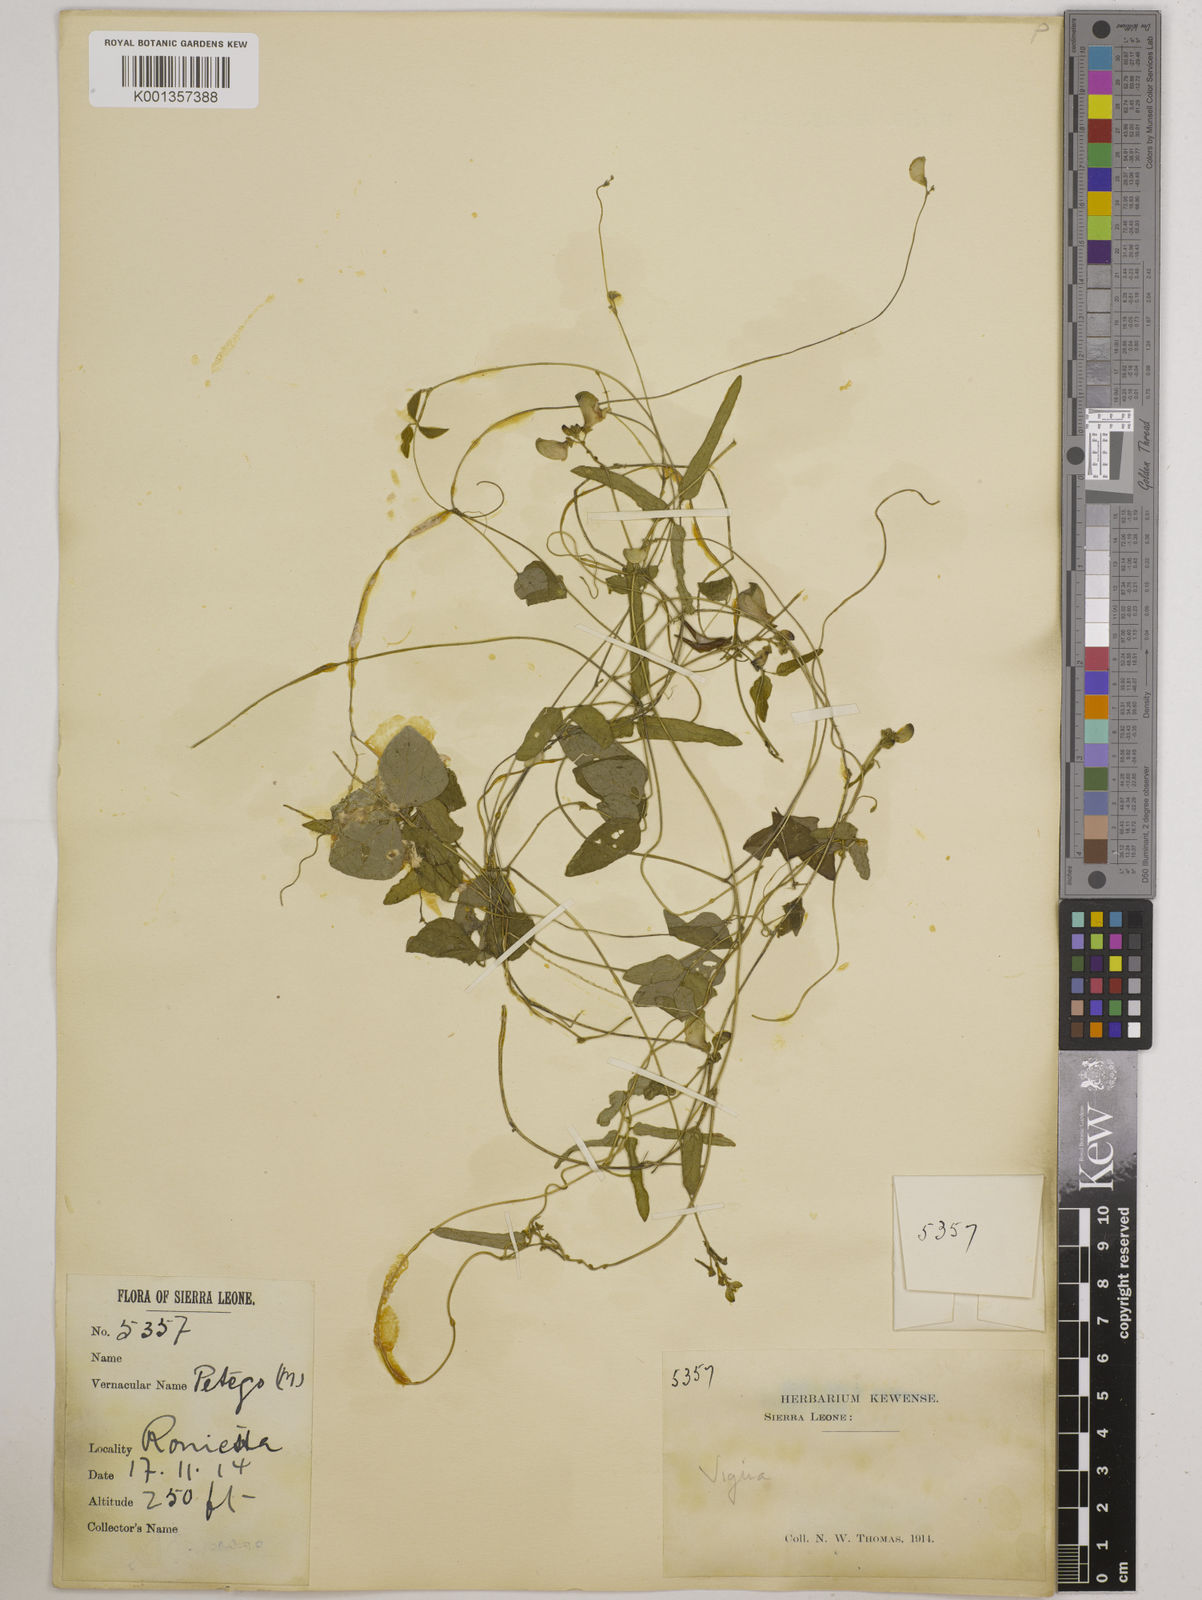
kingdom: Plantae
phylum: Tracheophyta
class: Magnoliopsida
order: Fabales
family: Fabaceae
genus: Vigna
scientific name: Vigna gracilis
